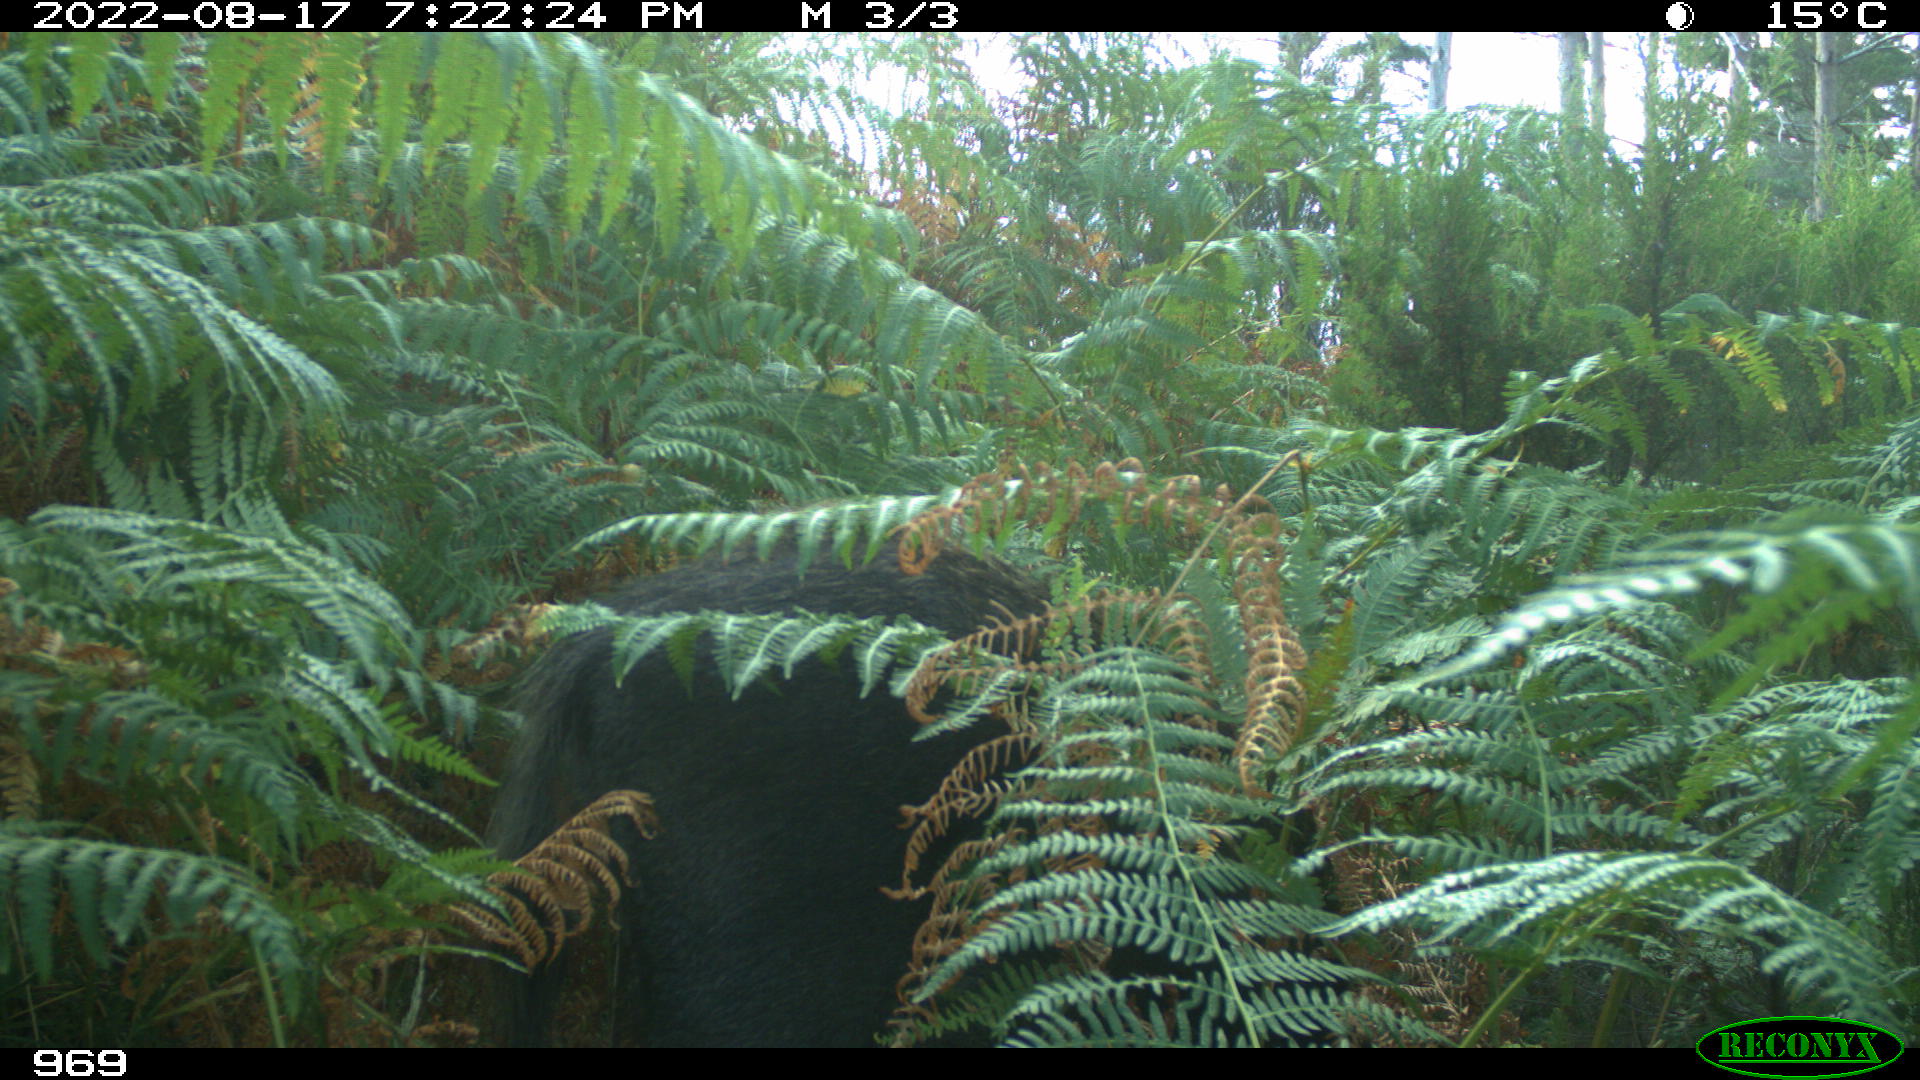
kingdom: Animalia
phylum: Chordata
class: Mammalia
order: Artiodactyla
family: Suidae
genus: Sus
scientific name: Sus scrofa
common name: Wild boar
